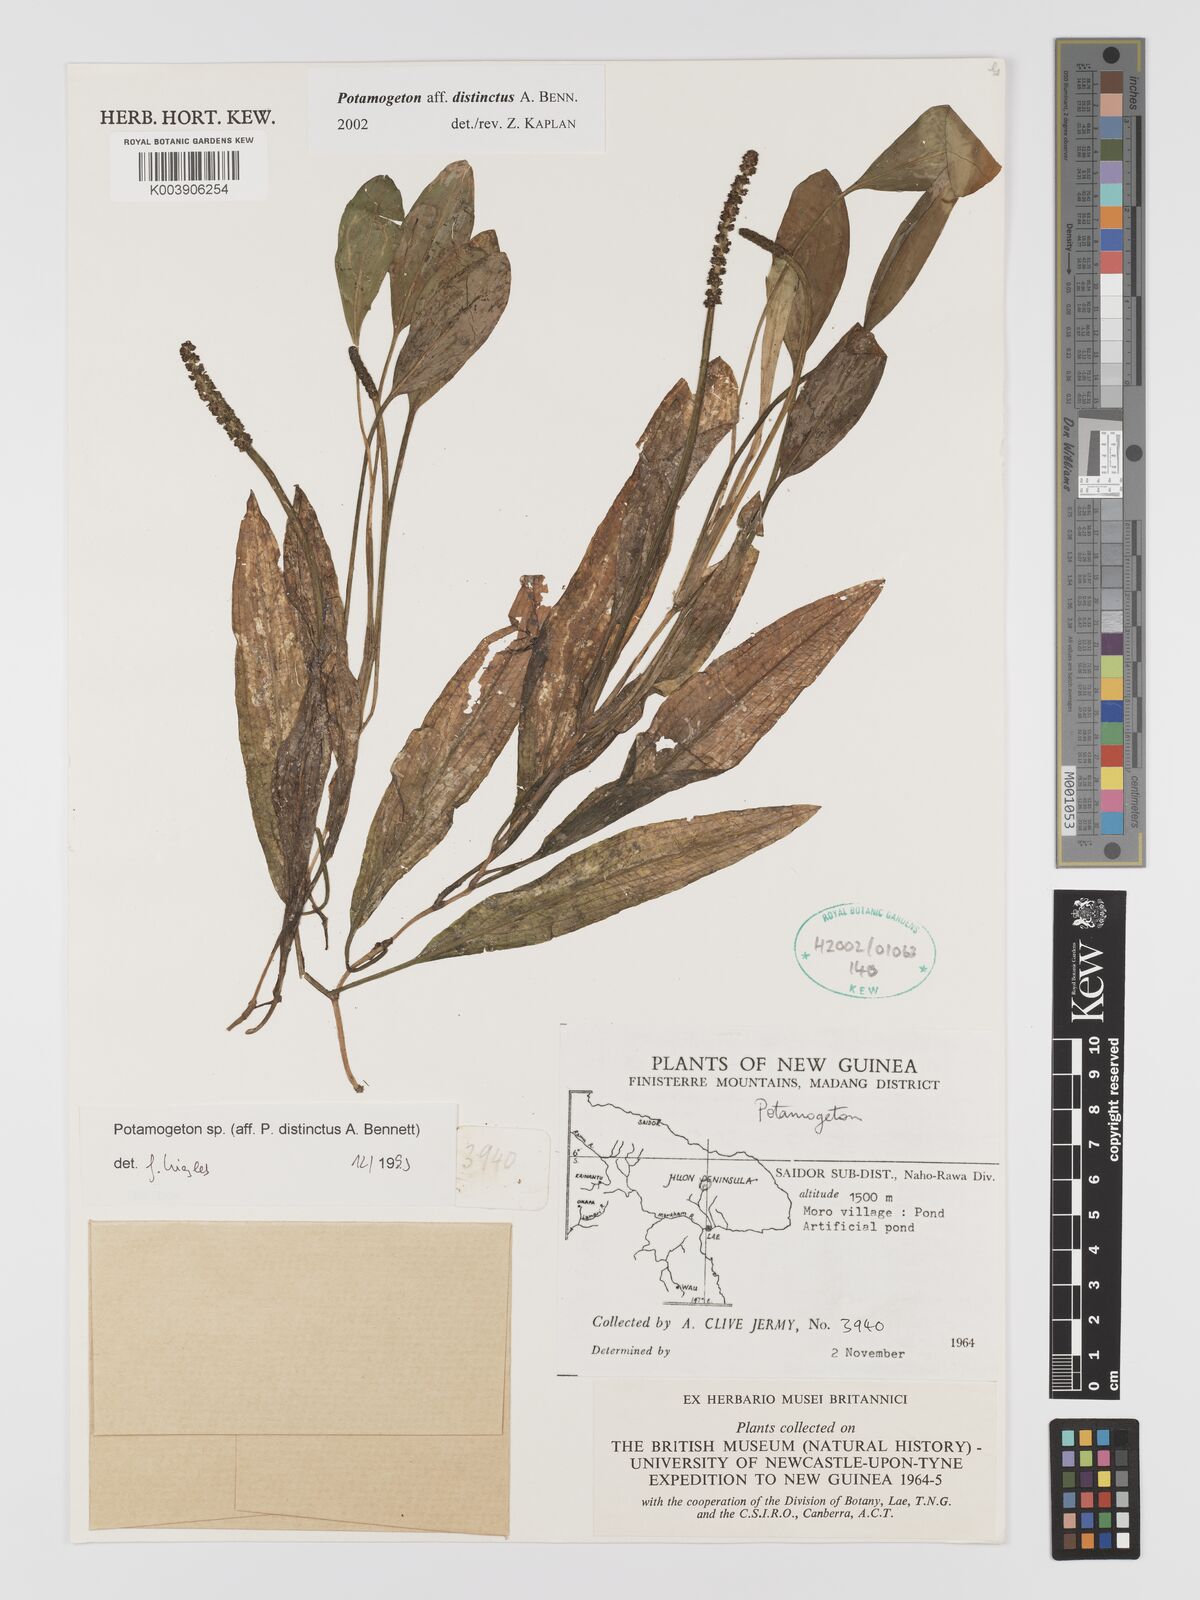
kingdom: Plantae
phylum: Tracheophyta
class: Liliopsida
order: Alismatales
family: Potamogetonaceae
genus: Potamogeton
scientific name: Potamogeton distinctus
